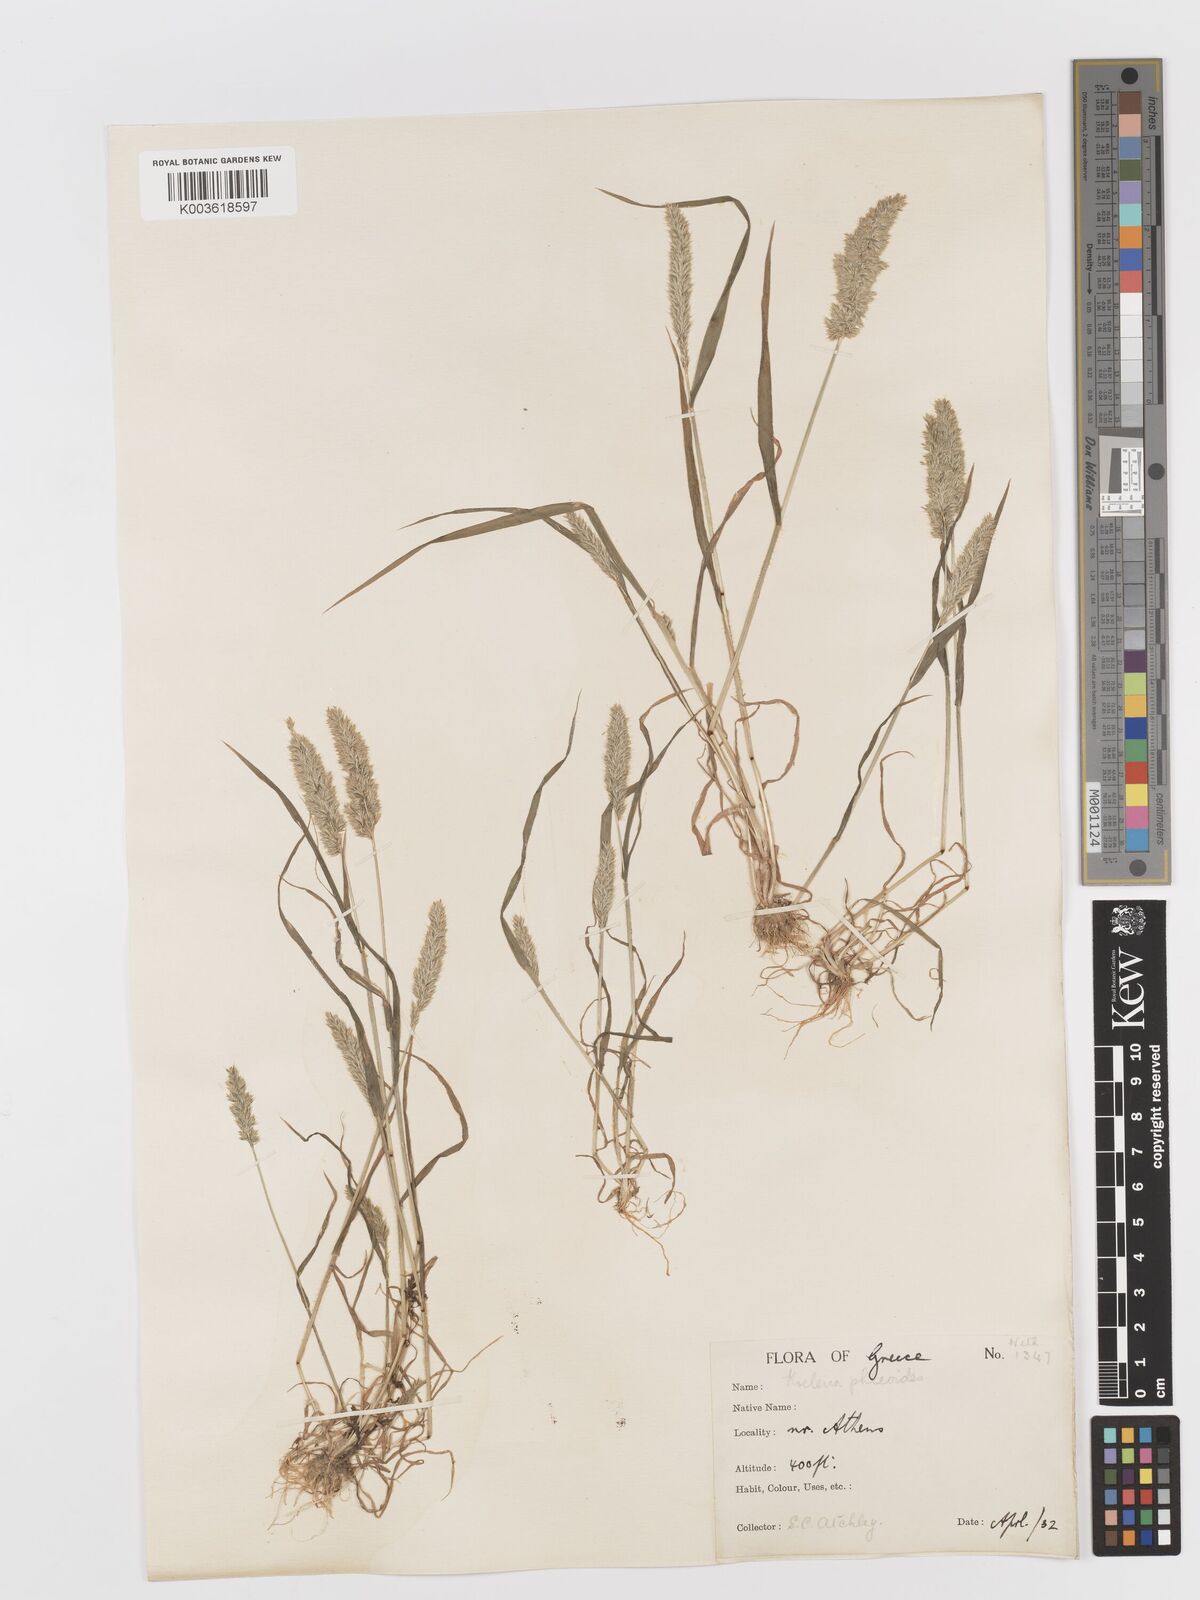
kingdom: Plantae
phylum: Tracheophyta
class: Liliopsida
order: Poales
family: Poaceae
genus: Rostraria
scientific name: Rostraria cristata
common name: Mediterranean hair-grass
